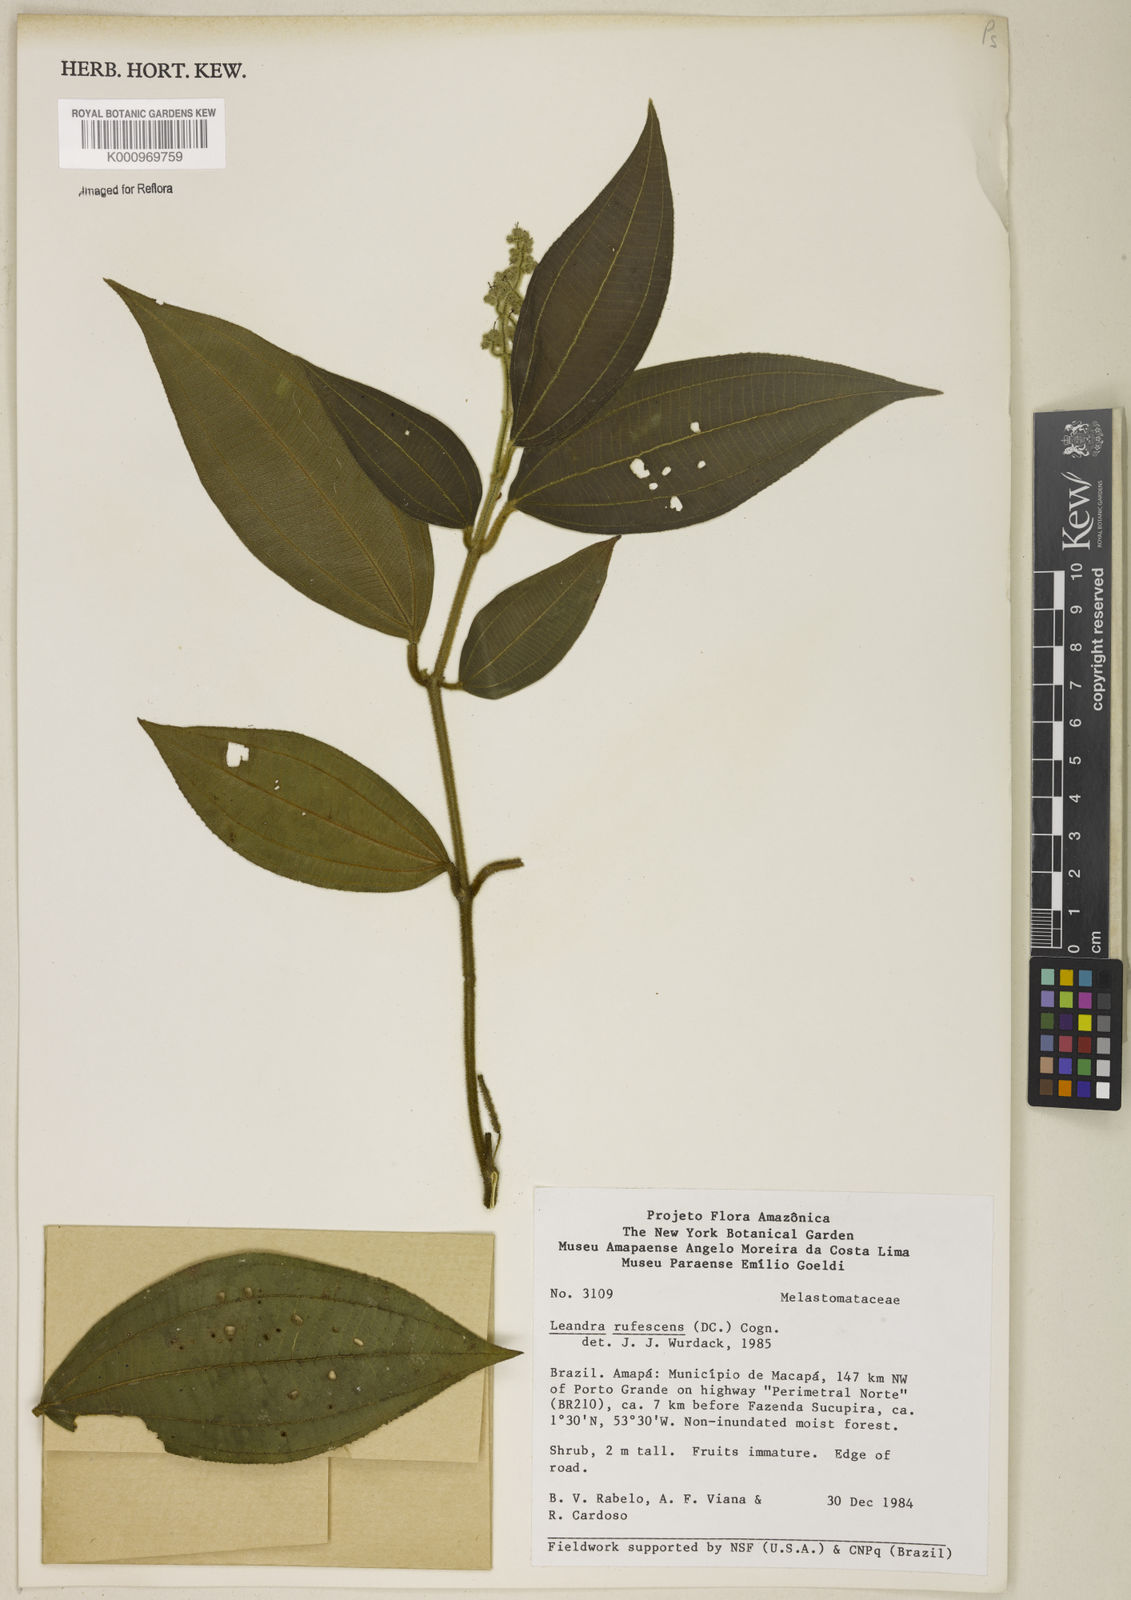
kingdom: Plantae
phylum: Tracheophyta
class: Magnoliopsida
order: Myrtales
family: Melastomataceae
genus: Miconia
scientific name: Miconia asperiuscula
